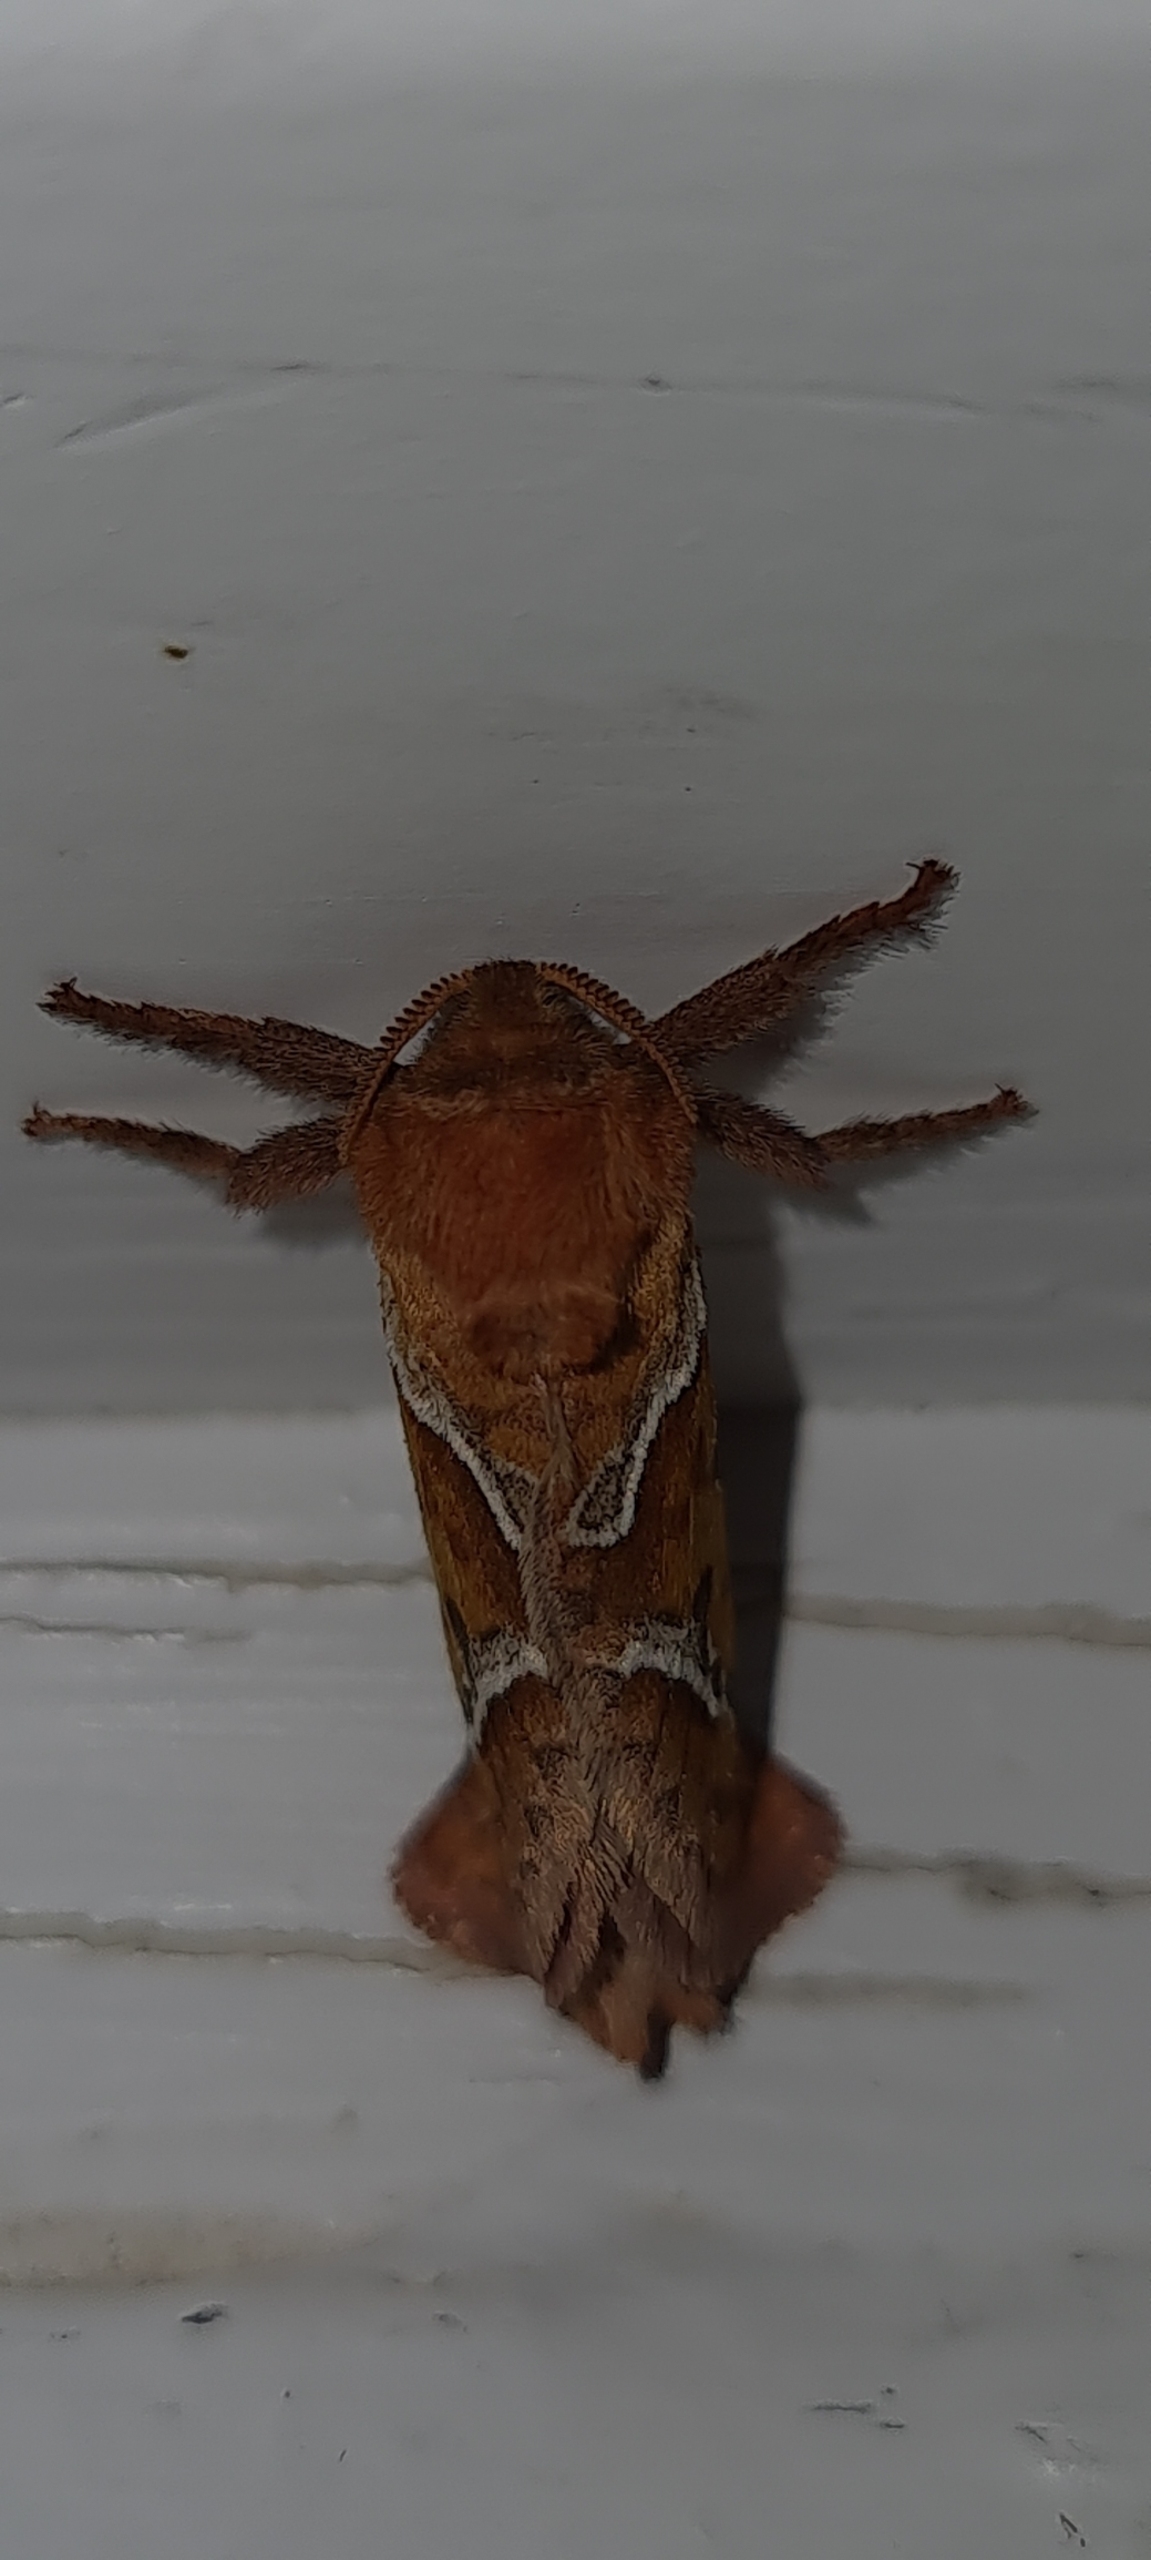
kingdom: Animalia
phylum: Arthropoda
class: Insecta
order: Lepidoptera
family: Hepialidae
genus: Triodia
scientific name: Triodia sylvina
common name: Skræpperodæder
